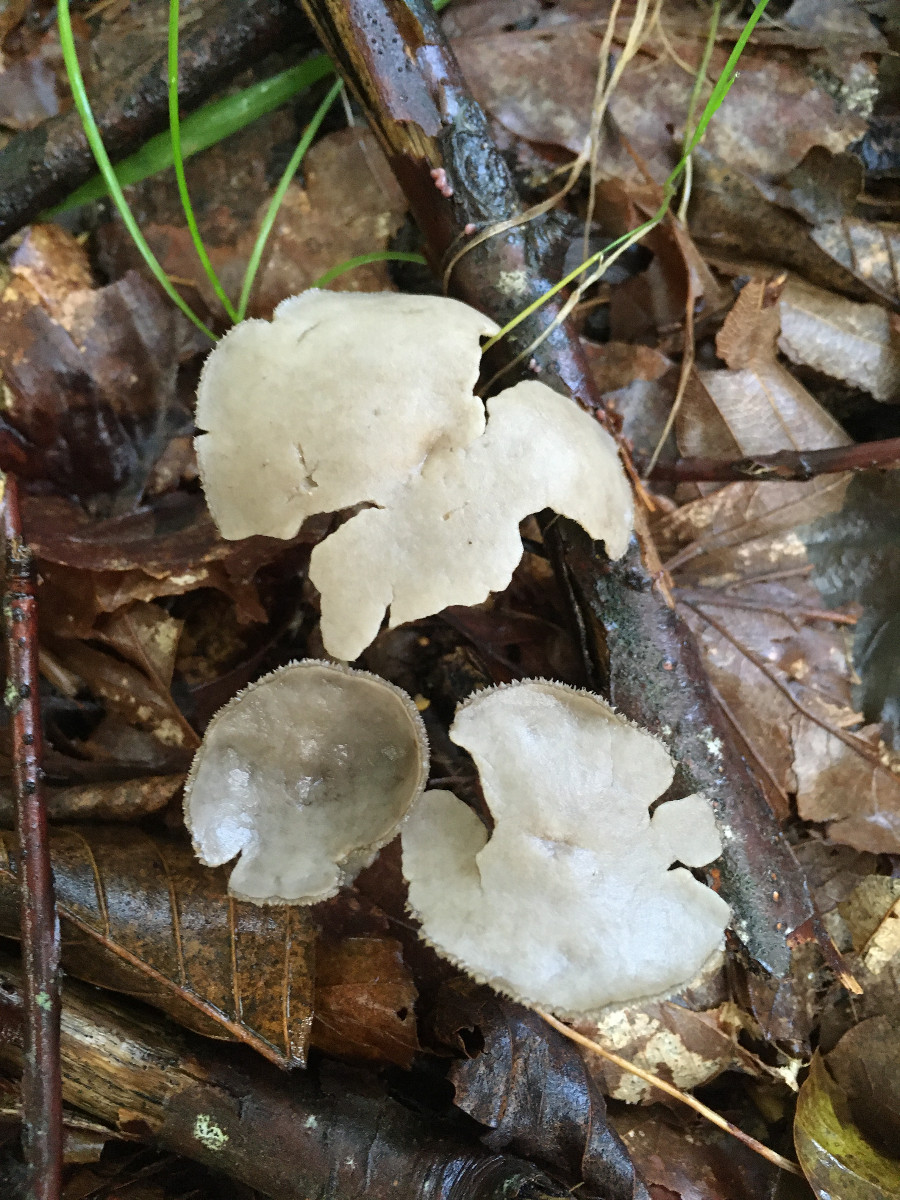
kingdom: Fungi
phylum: Ascomycota
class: Pezizomycetes
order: Pezizales
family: Helvellaceae
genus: Helvella
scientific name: Helvella
